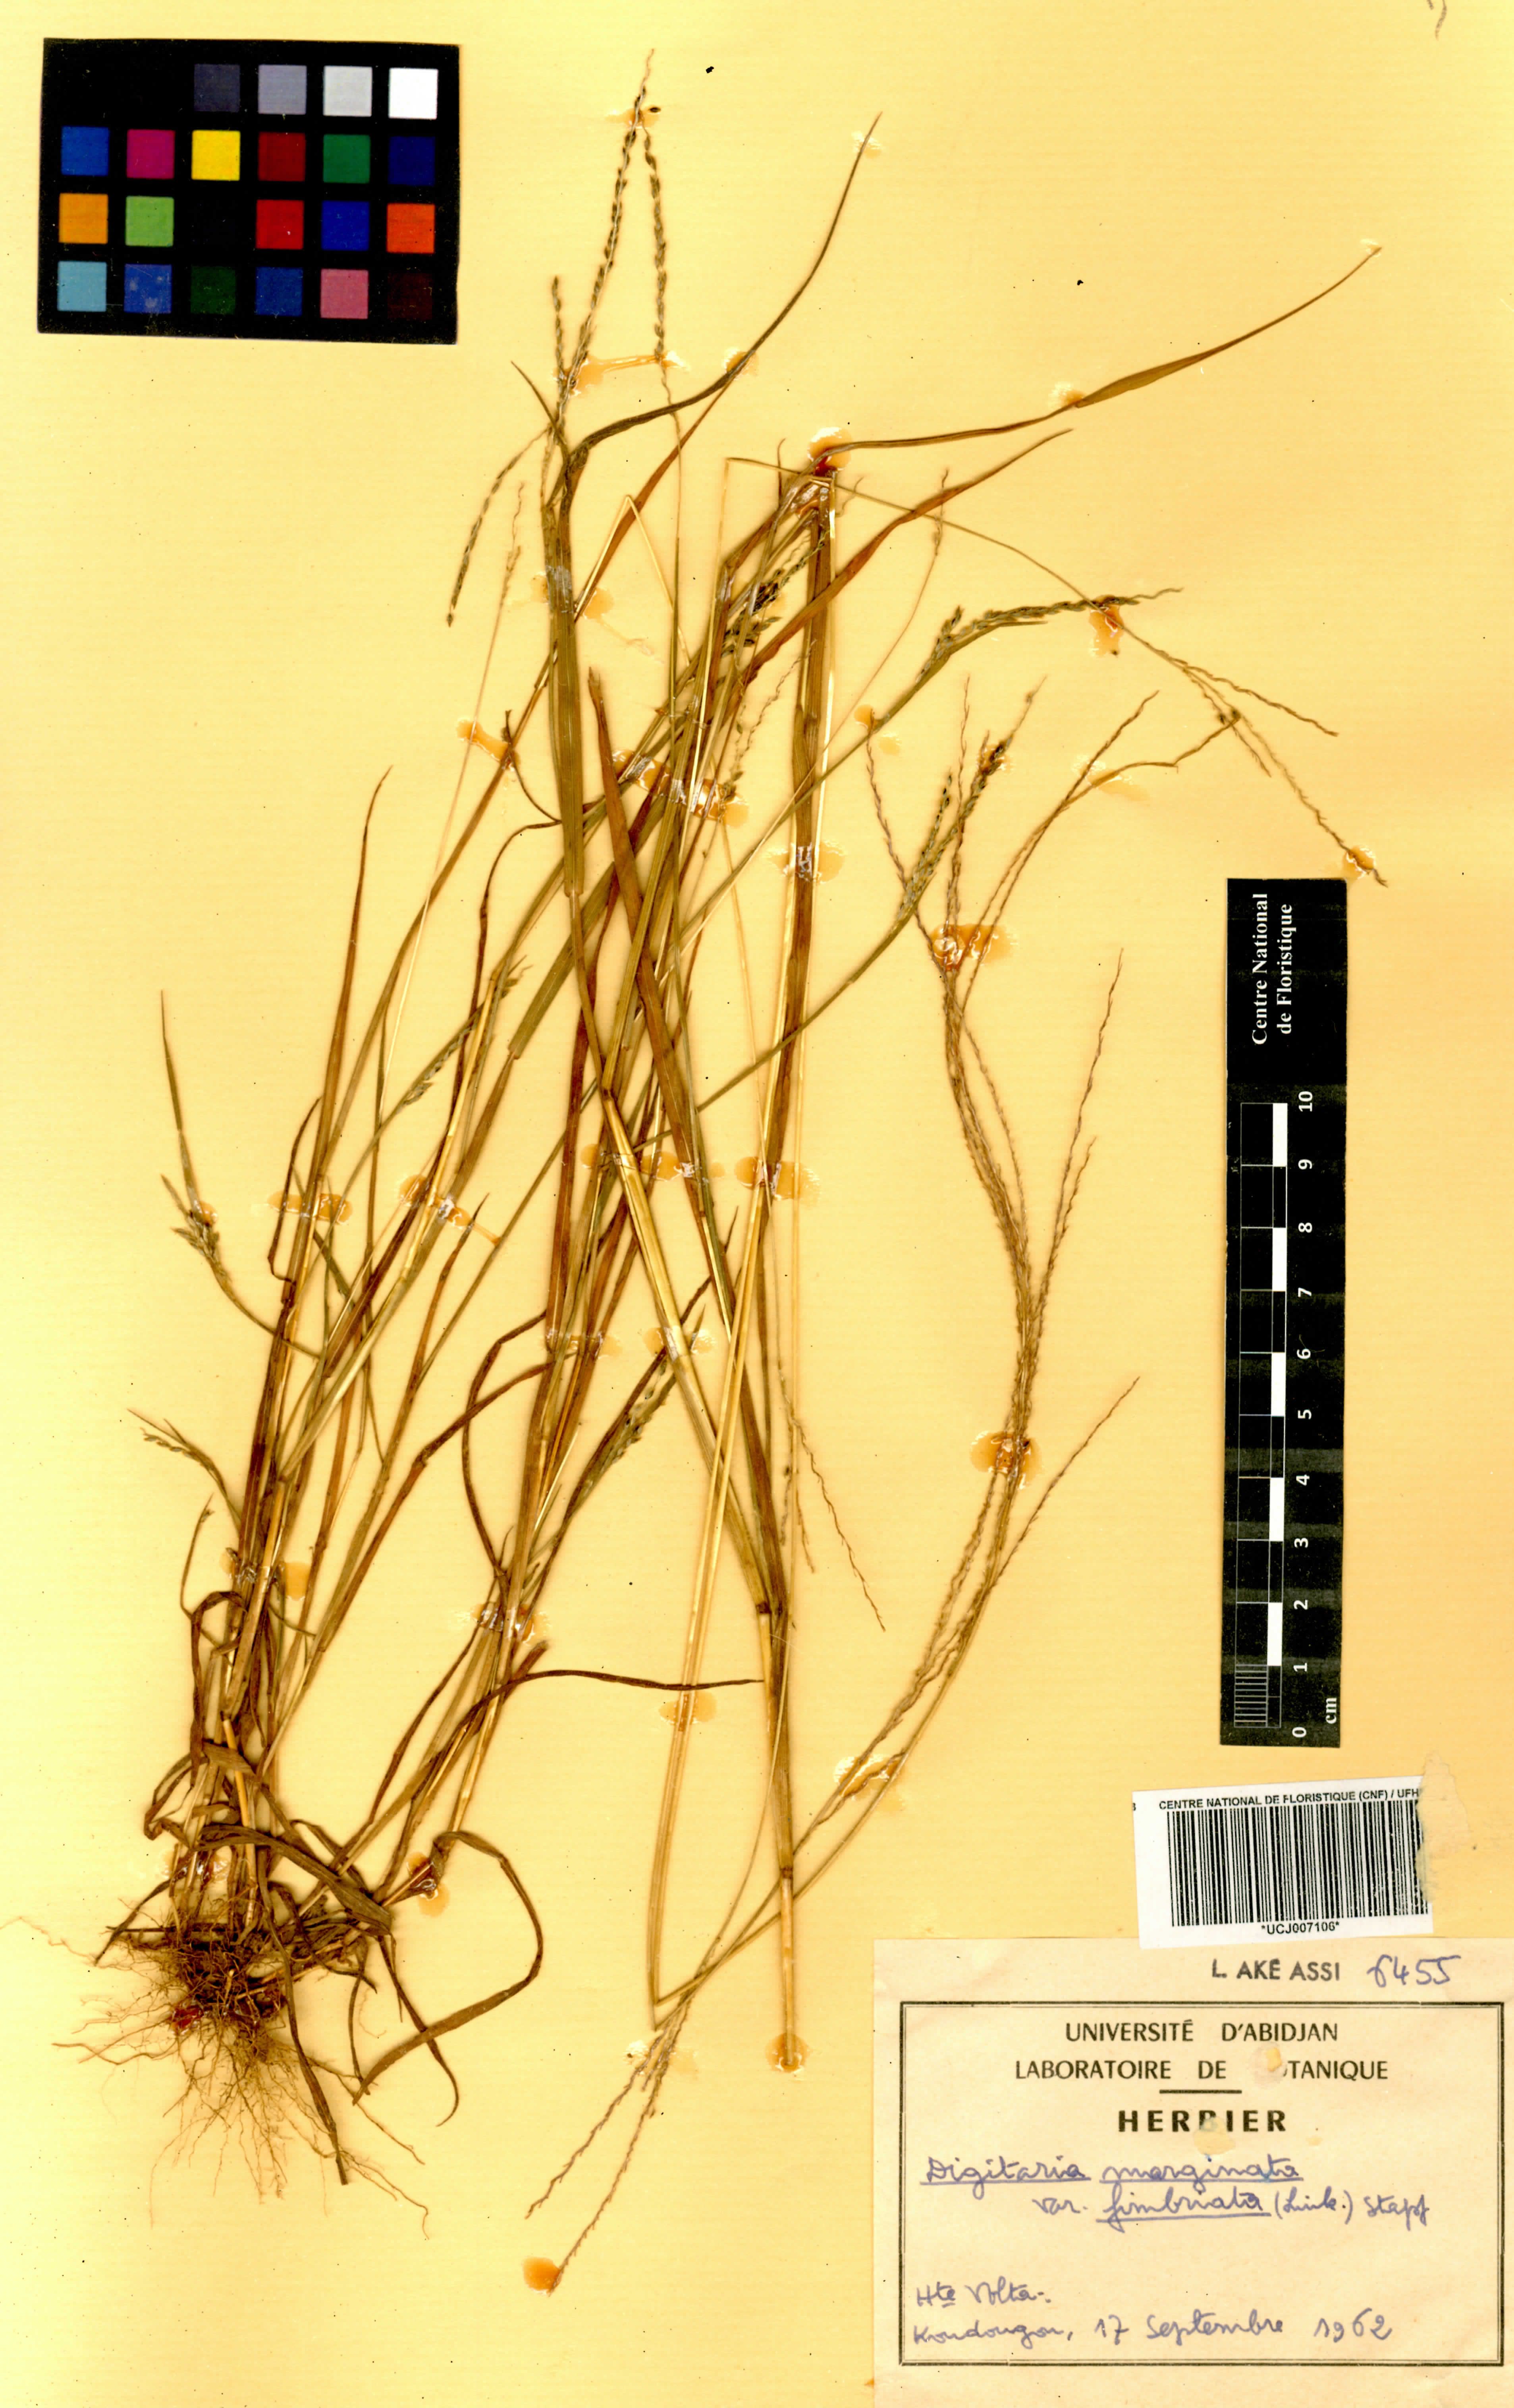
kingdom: Plantae
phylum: Tracheophyta
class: Liliopsida
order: Poales
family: Poaceae
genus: Digitaria
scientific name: Digitaria ciliaris
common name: Tropical finger-grass
